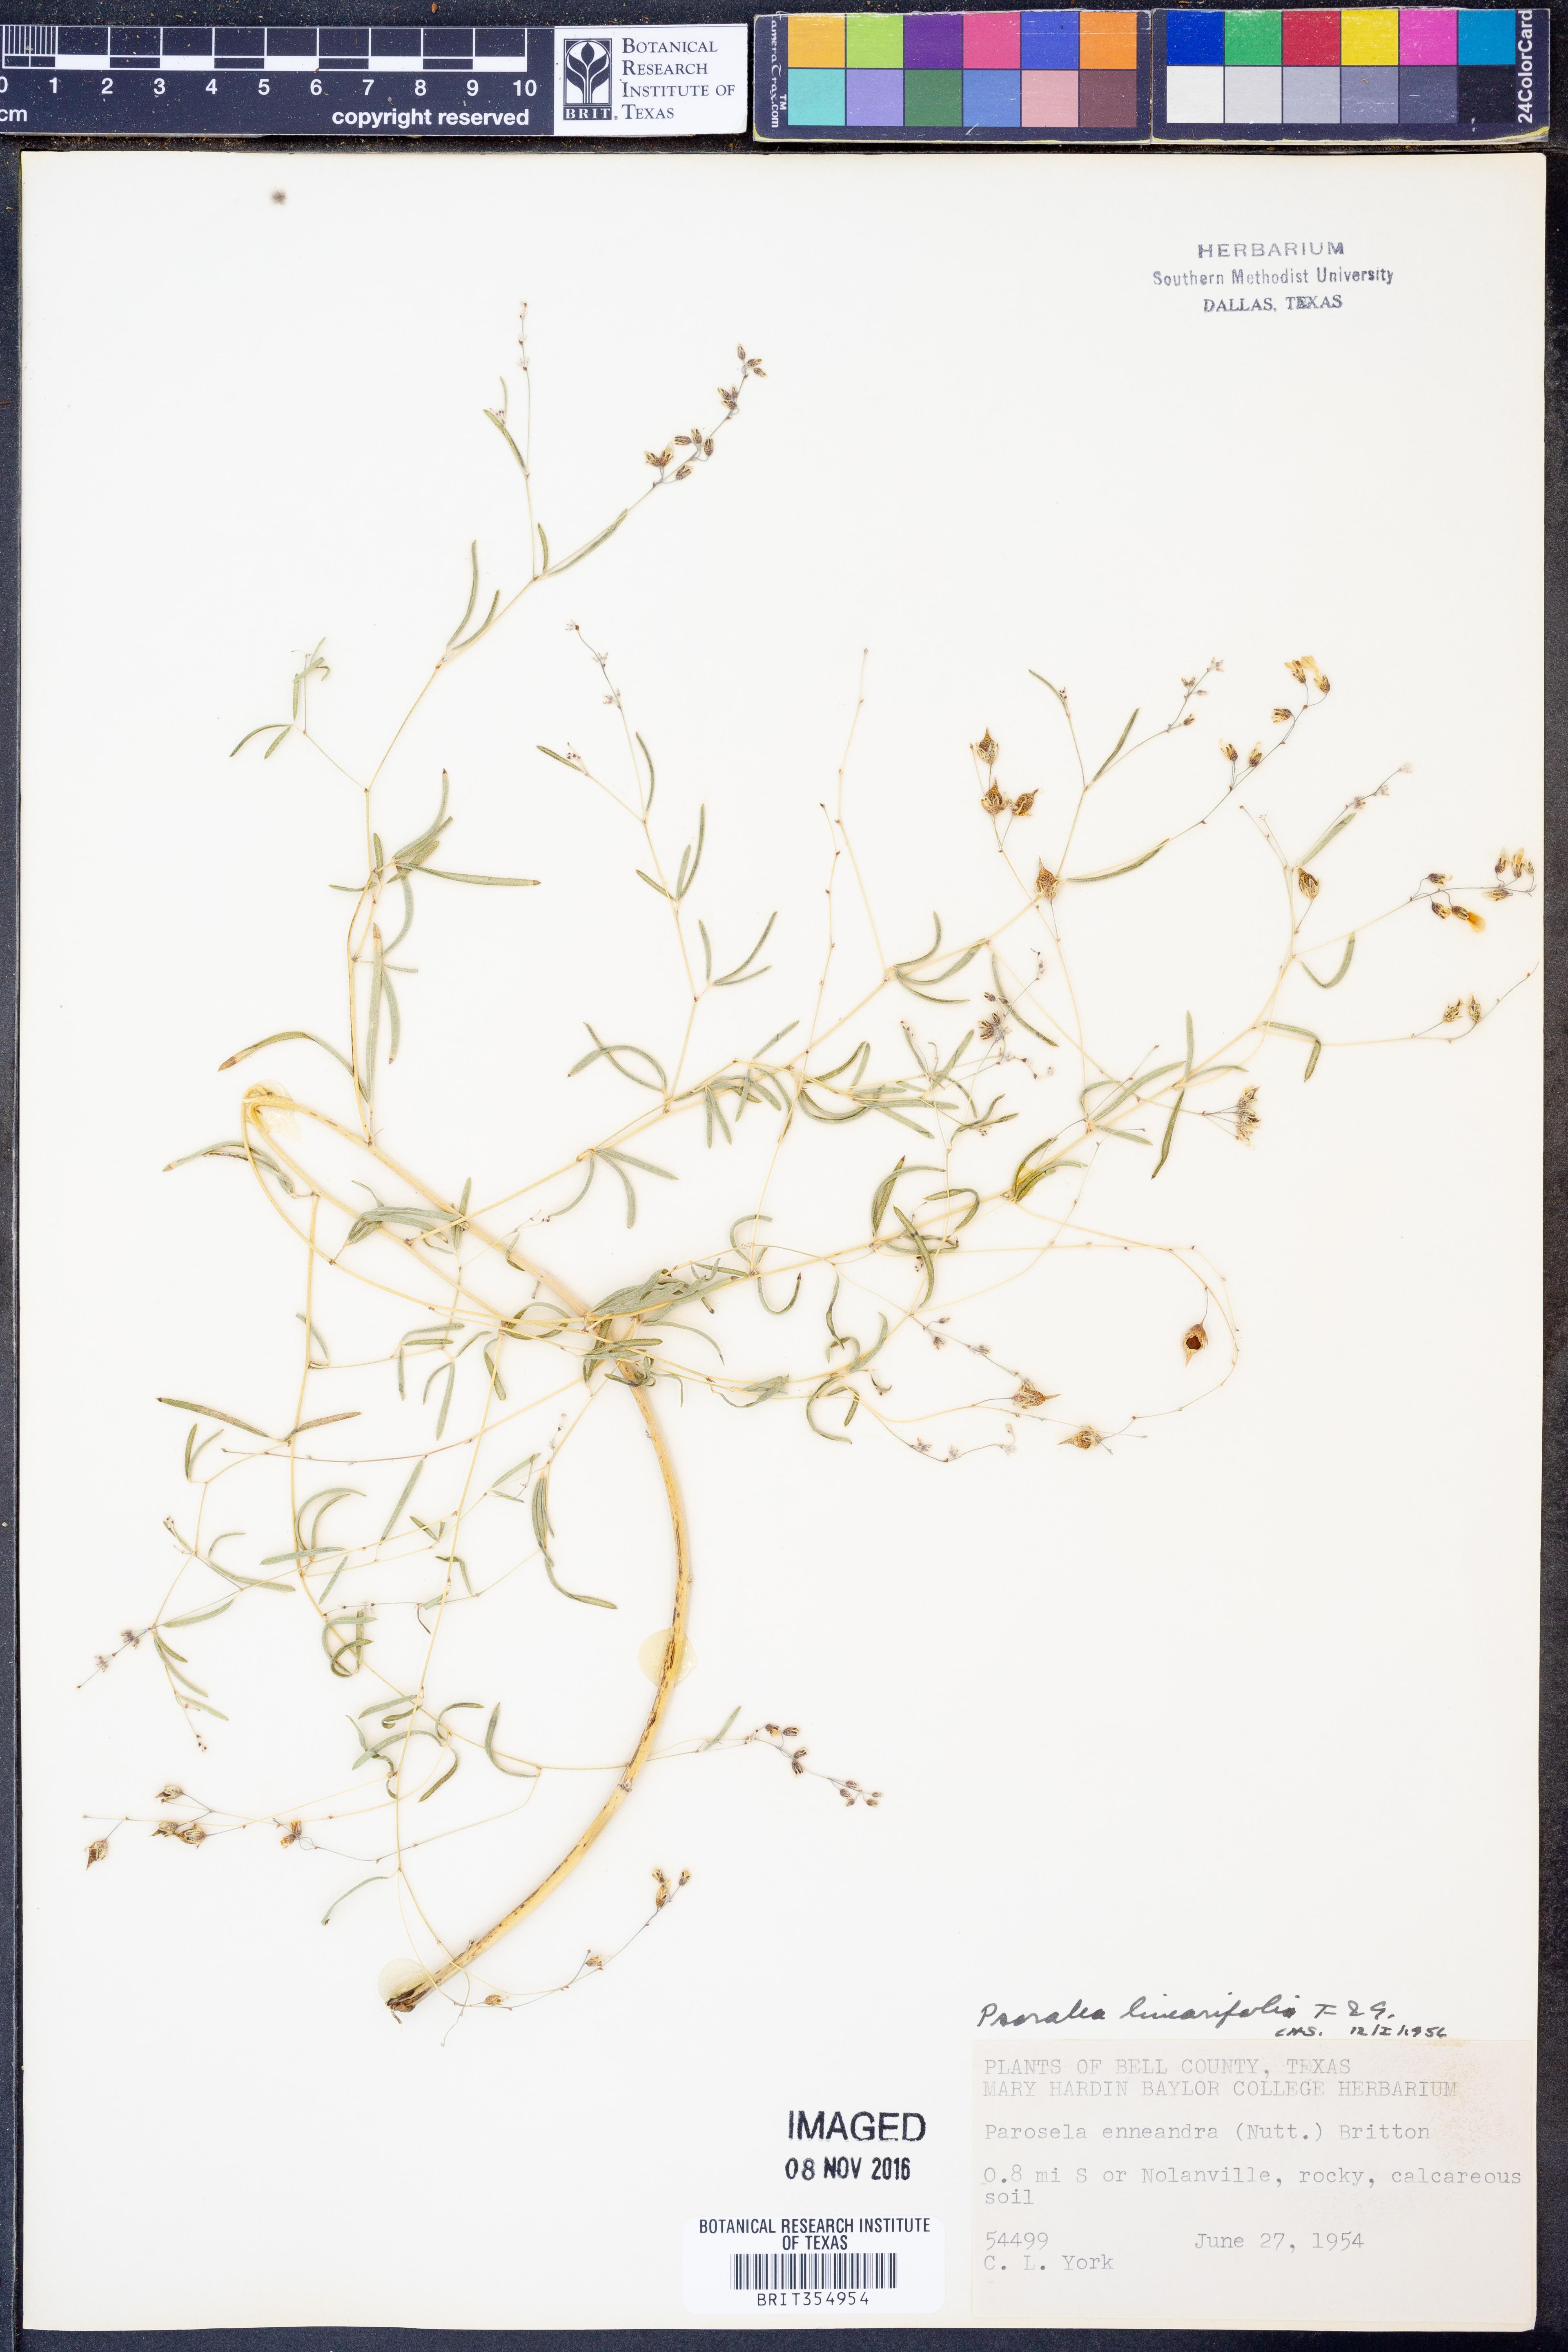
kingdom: Plantae
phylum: Tracheophyta
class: Magnoliopsida
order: Fabales
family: Fabaceae
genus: Pediomelum
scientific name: Pediomelum linearifolium
